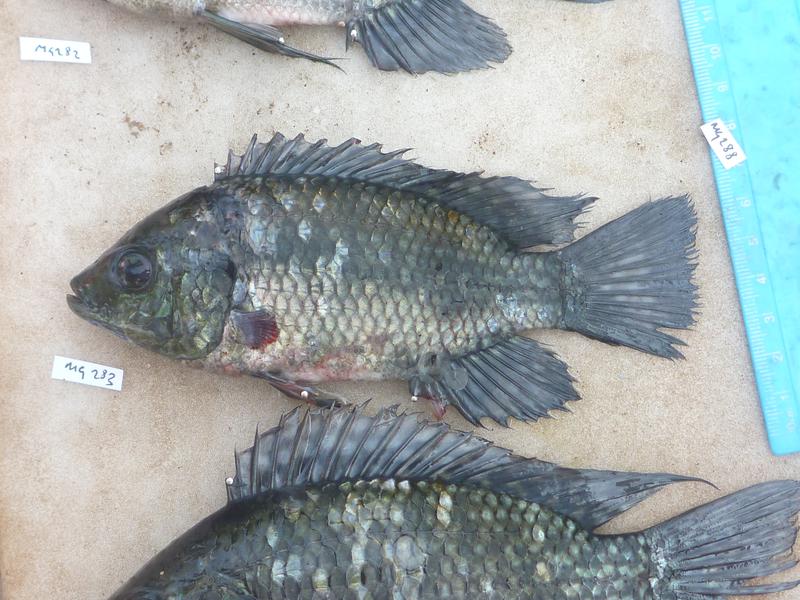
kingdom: Animalia
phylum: Chordata
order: Perciformes
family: Cichlidae
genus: Oreochromis
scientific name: Oreochromis leucostictus
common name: Blue spotted tilapia
